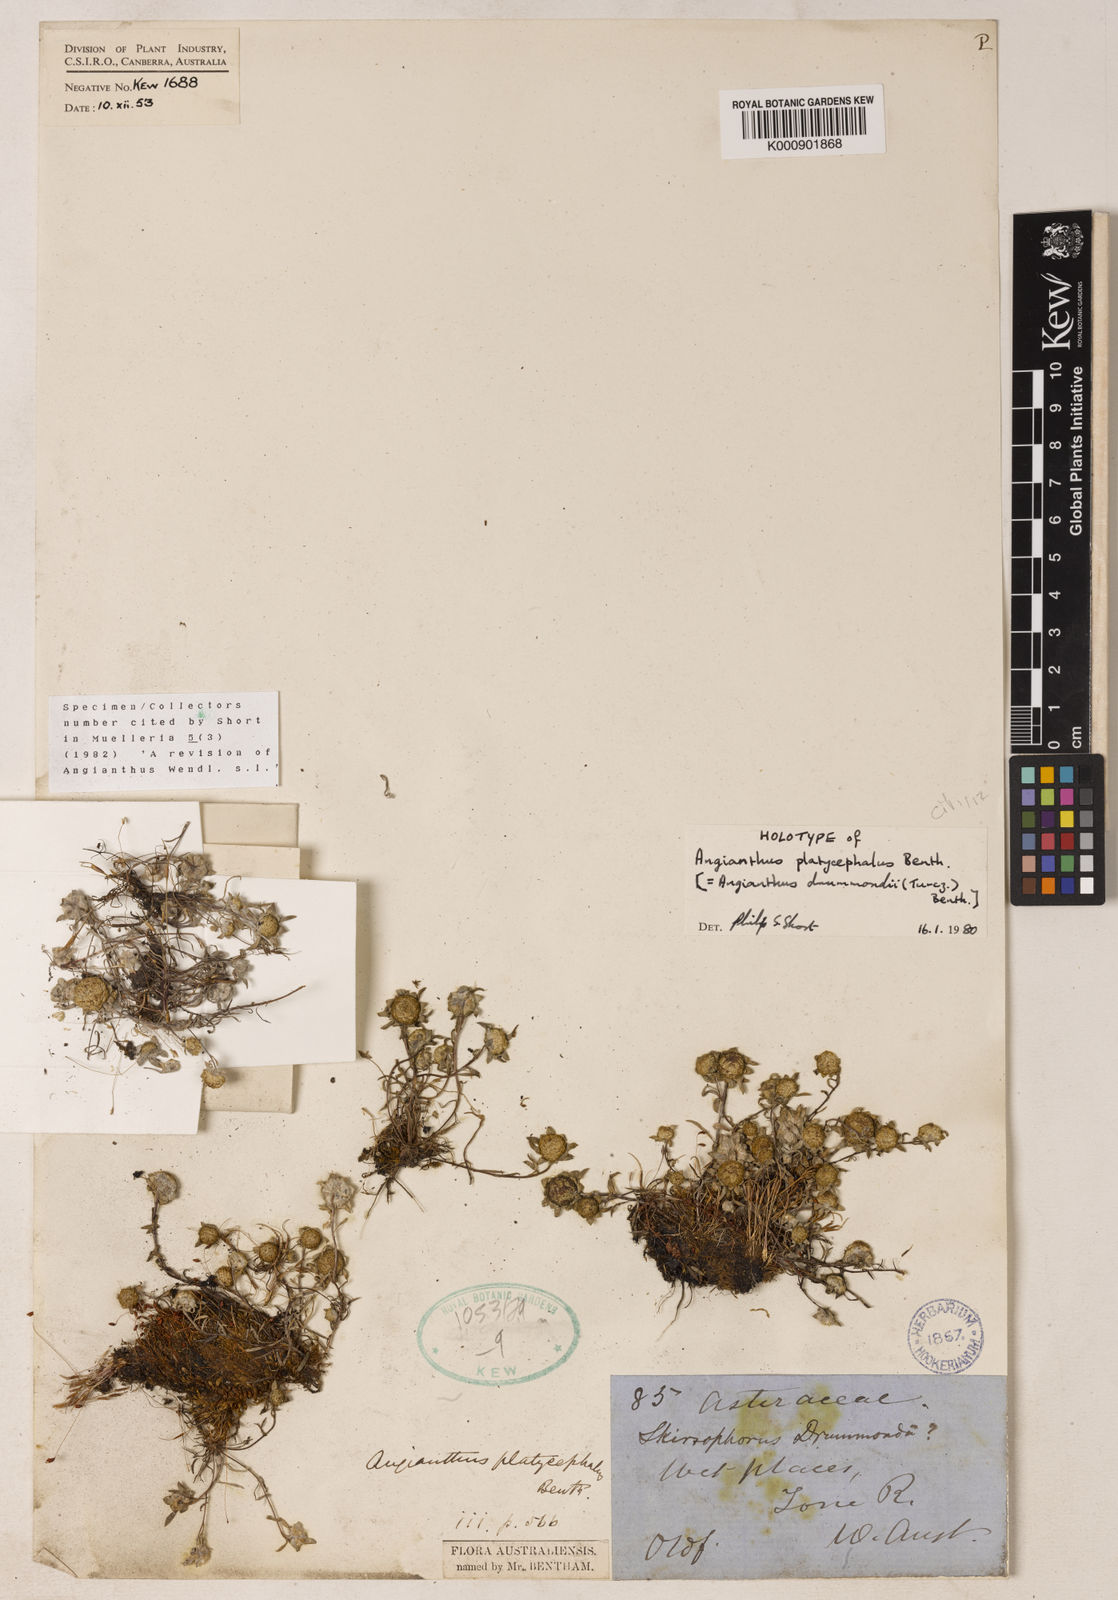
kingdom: Plantae
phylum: Tracheophyta
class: Magnoliopsida
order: Asterales
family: Asteraceae
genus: Angianthus
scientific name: Angianthus
